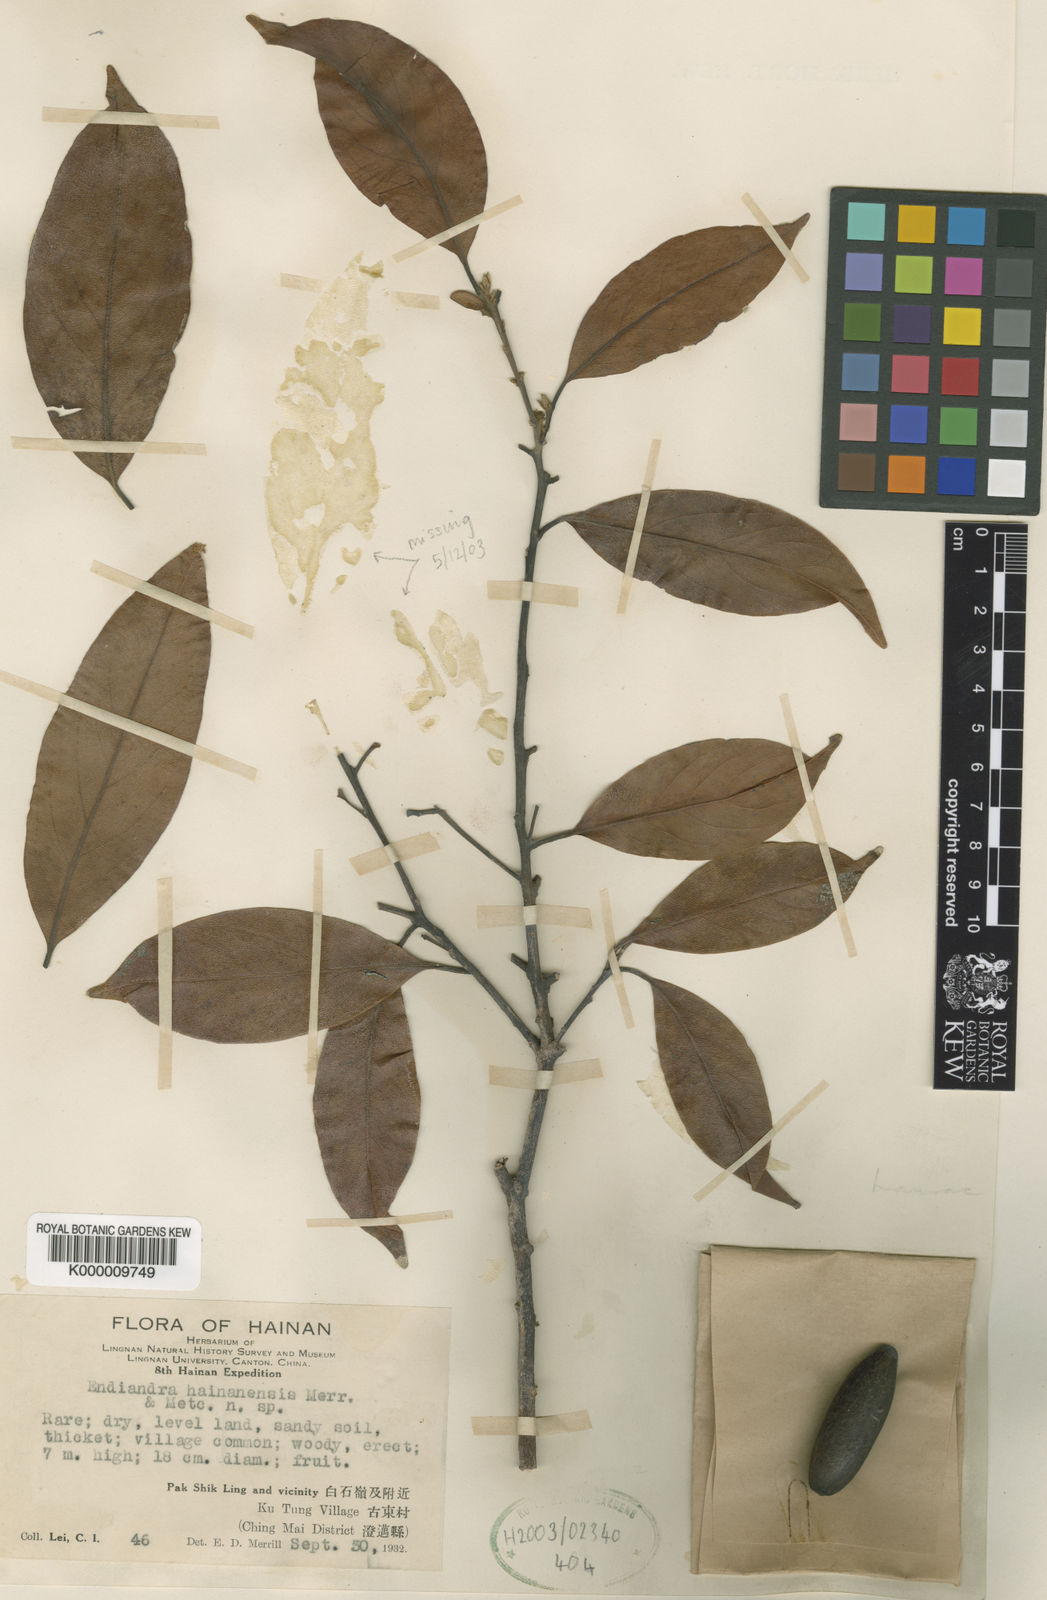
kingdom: Plantae
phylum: Tracheophyta
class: Magnoliopsida
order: Laurales
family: Lauraceae
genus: Endiandra
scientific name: Endiandra hainanensis
